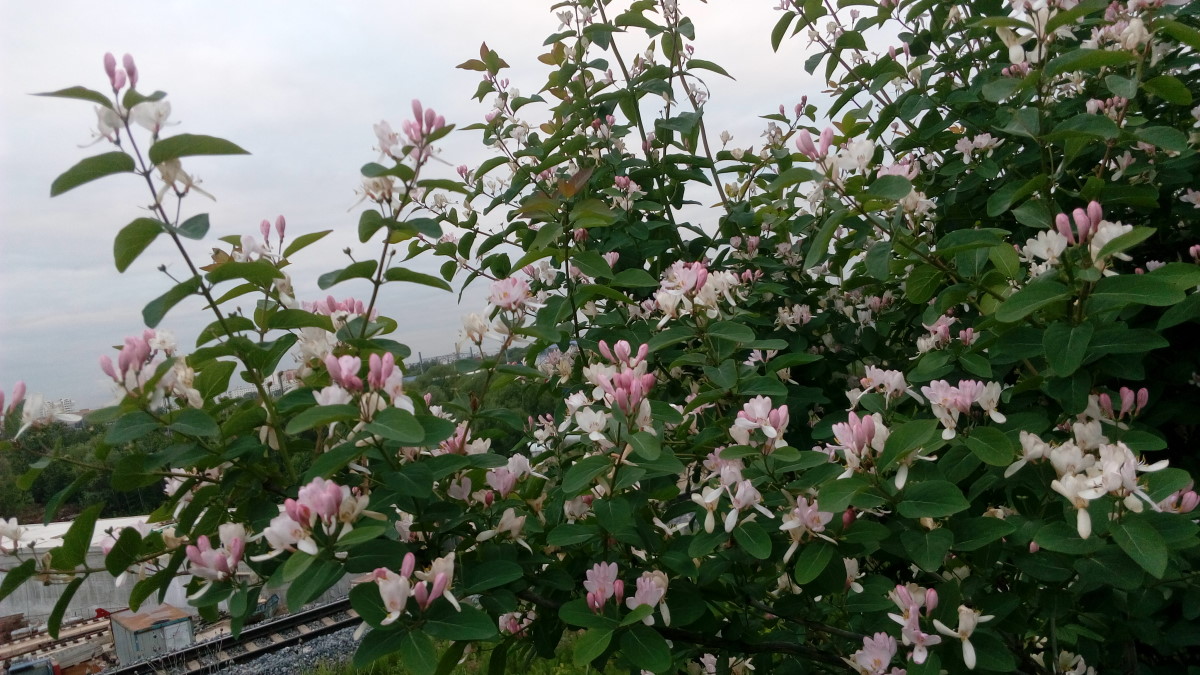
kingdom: Plantae
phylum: Tracheophyta
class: Magnoliopsida
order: Dipsacales
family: Caprifoliaceae
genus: Lonicera
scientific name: Lonicera tatarica
